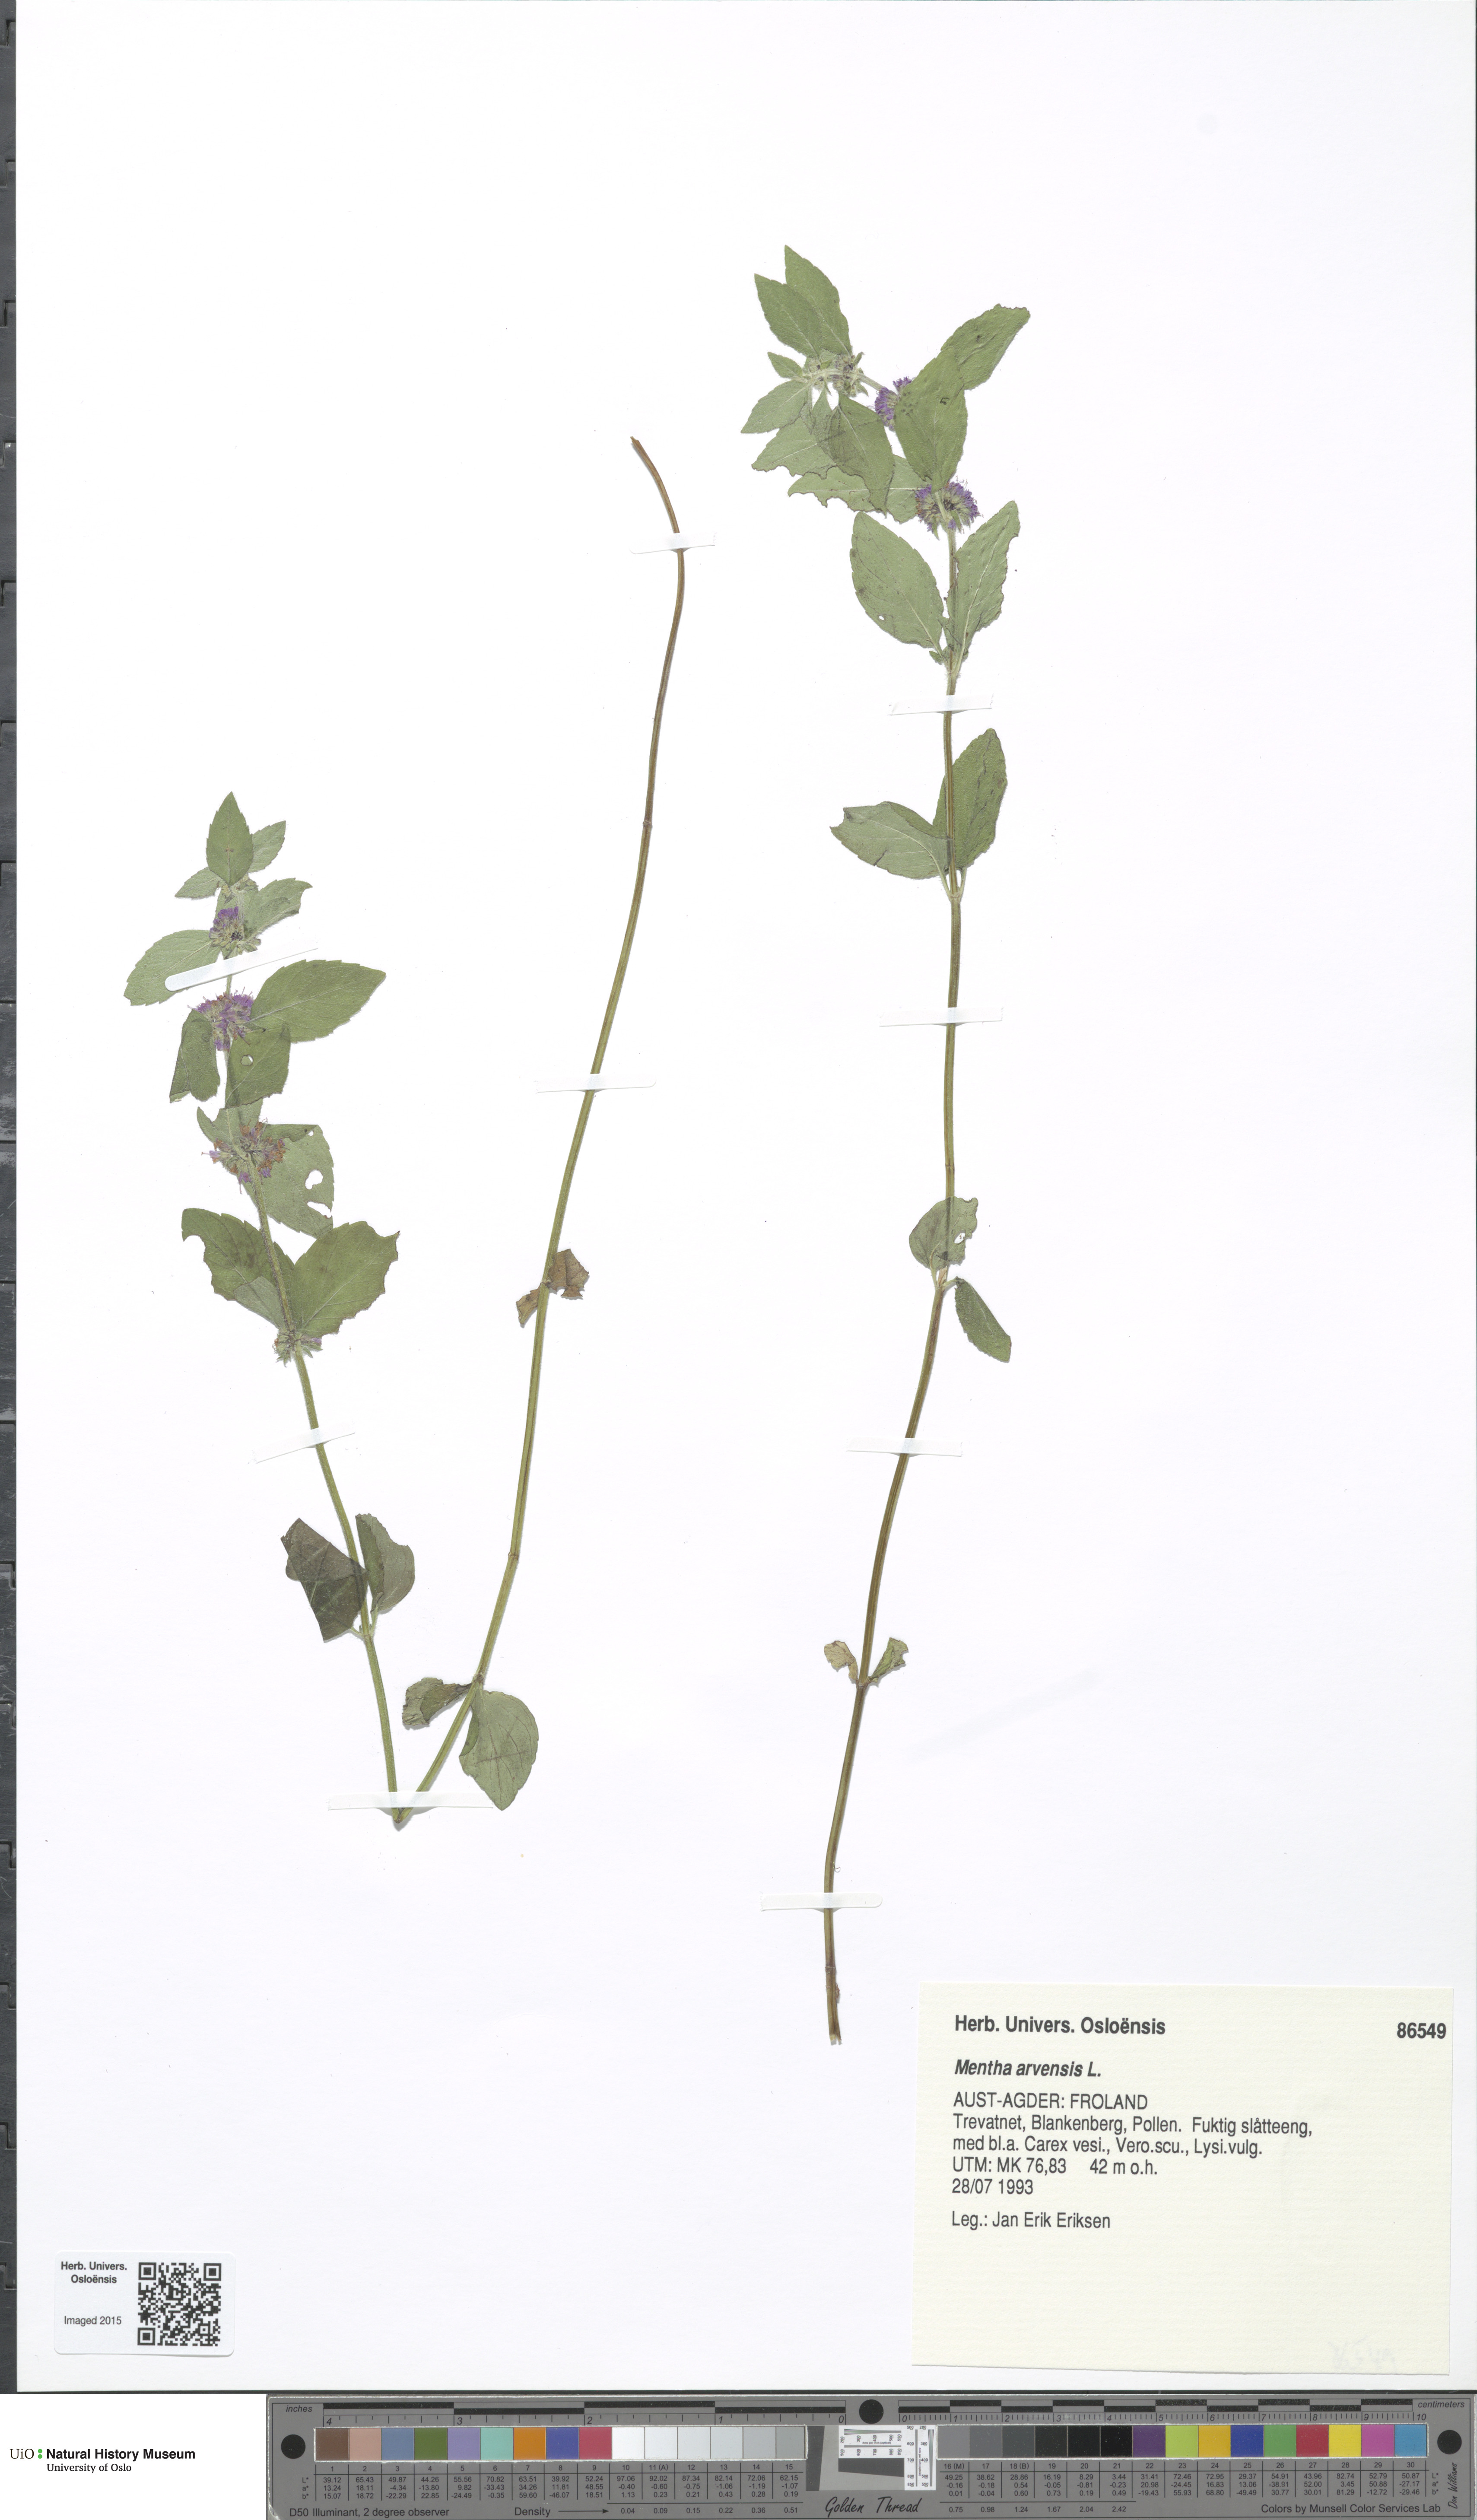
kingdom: Plantae
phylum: Tracheophyta
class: Magnoliopsida
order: Lamiales
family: Lamiaceae
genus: Mentha
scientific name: Mentha arvensis
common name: Corn mint
